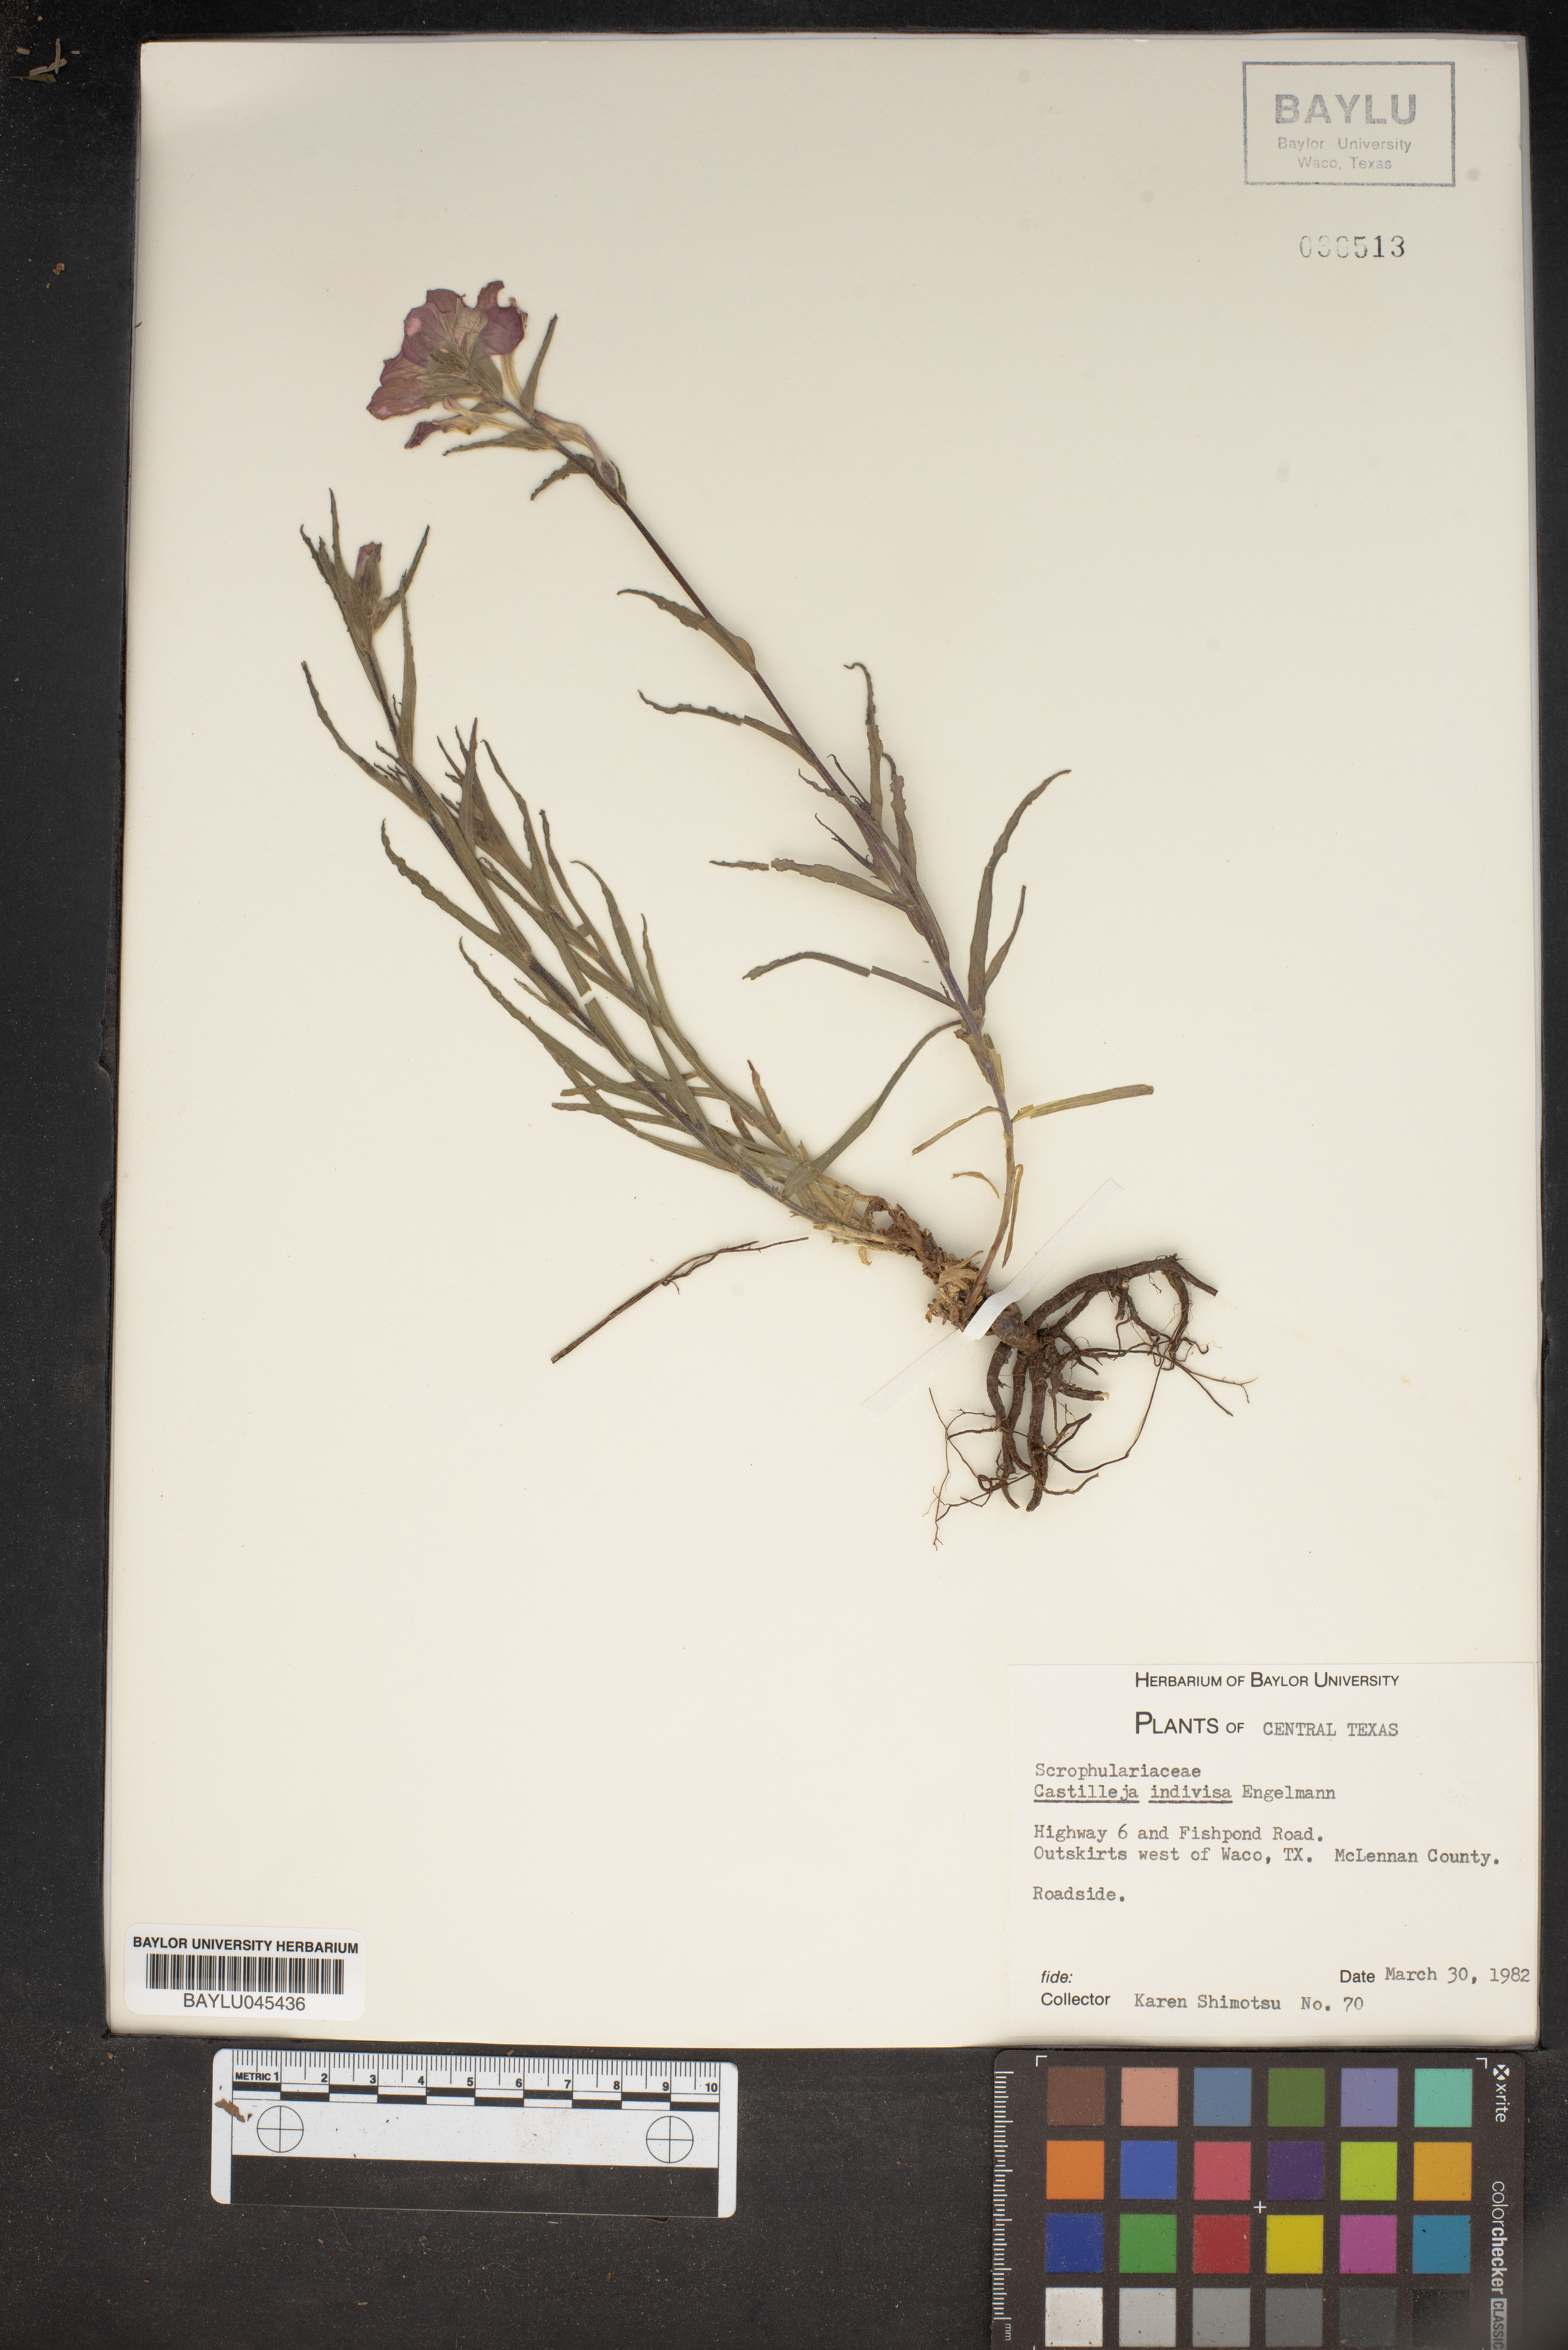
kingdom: Plantae
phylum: Tracheophyta
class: Magnoliopsida
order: Lamiales
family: Orobanchaceae
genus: Castilleja
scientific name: Castilleja indivisa
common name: Texas paintbrush
